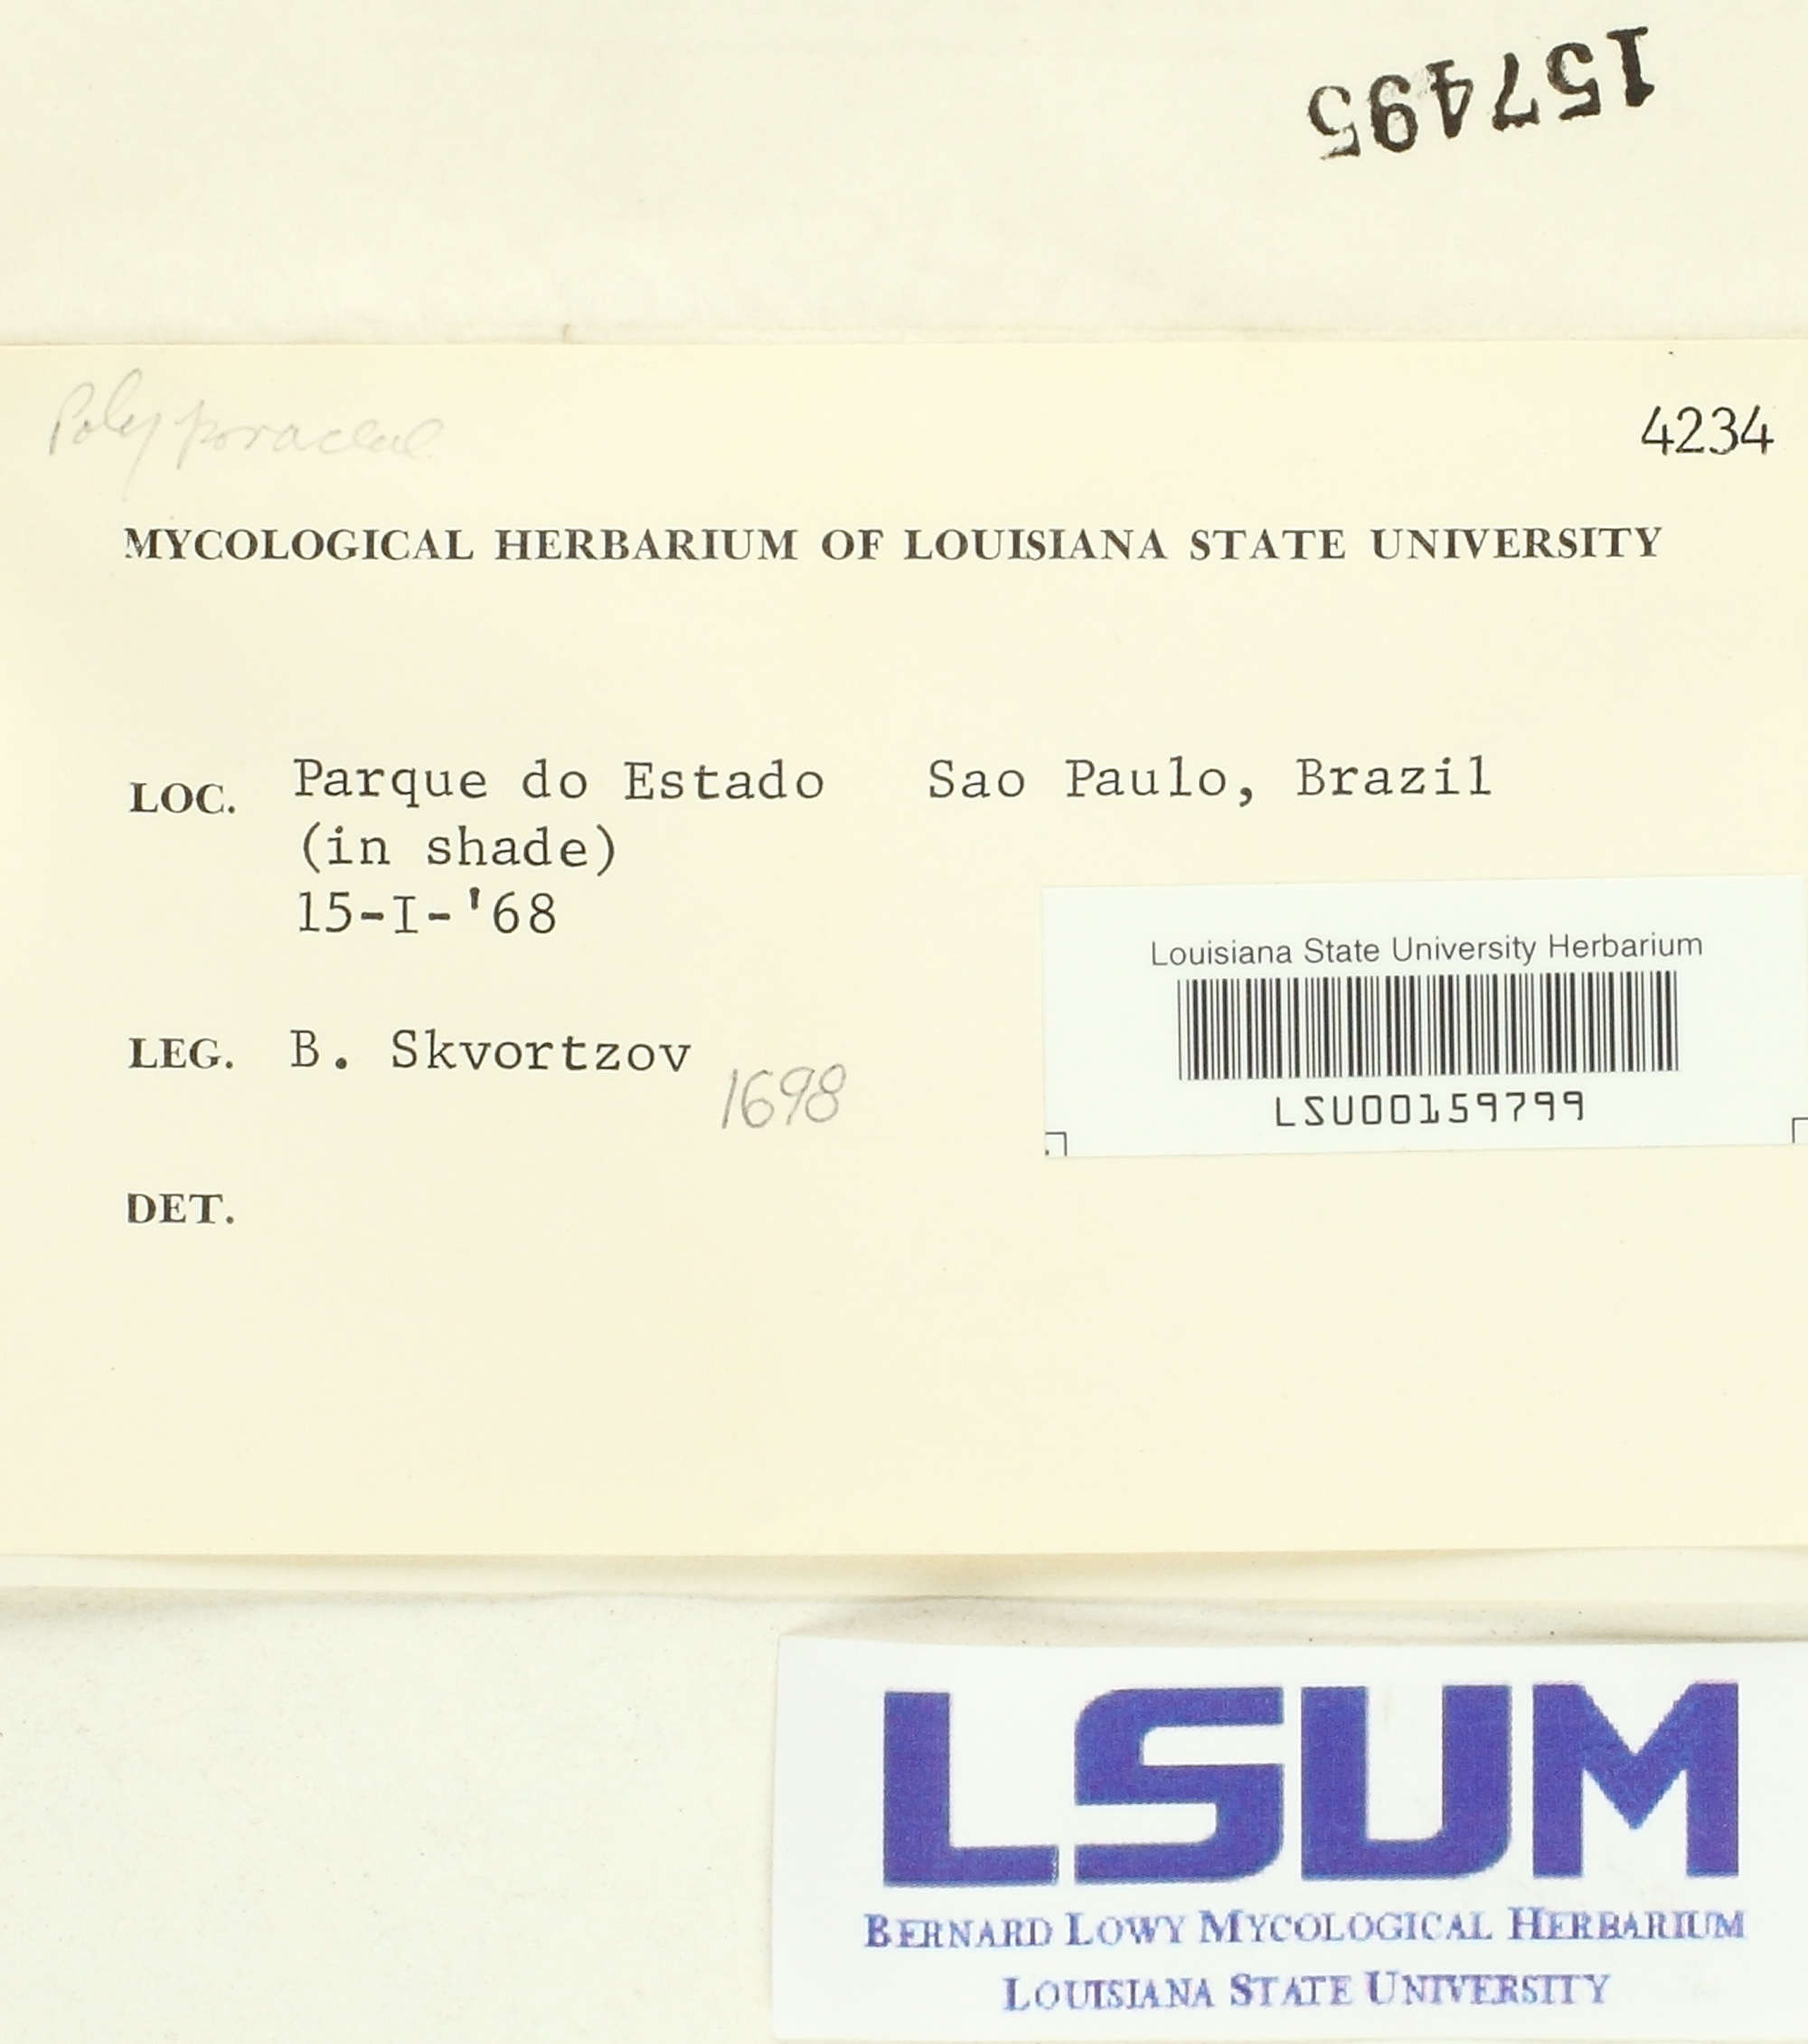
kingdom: Fungi
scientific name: Fungi
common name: Fungi
